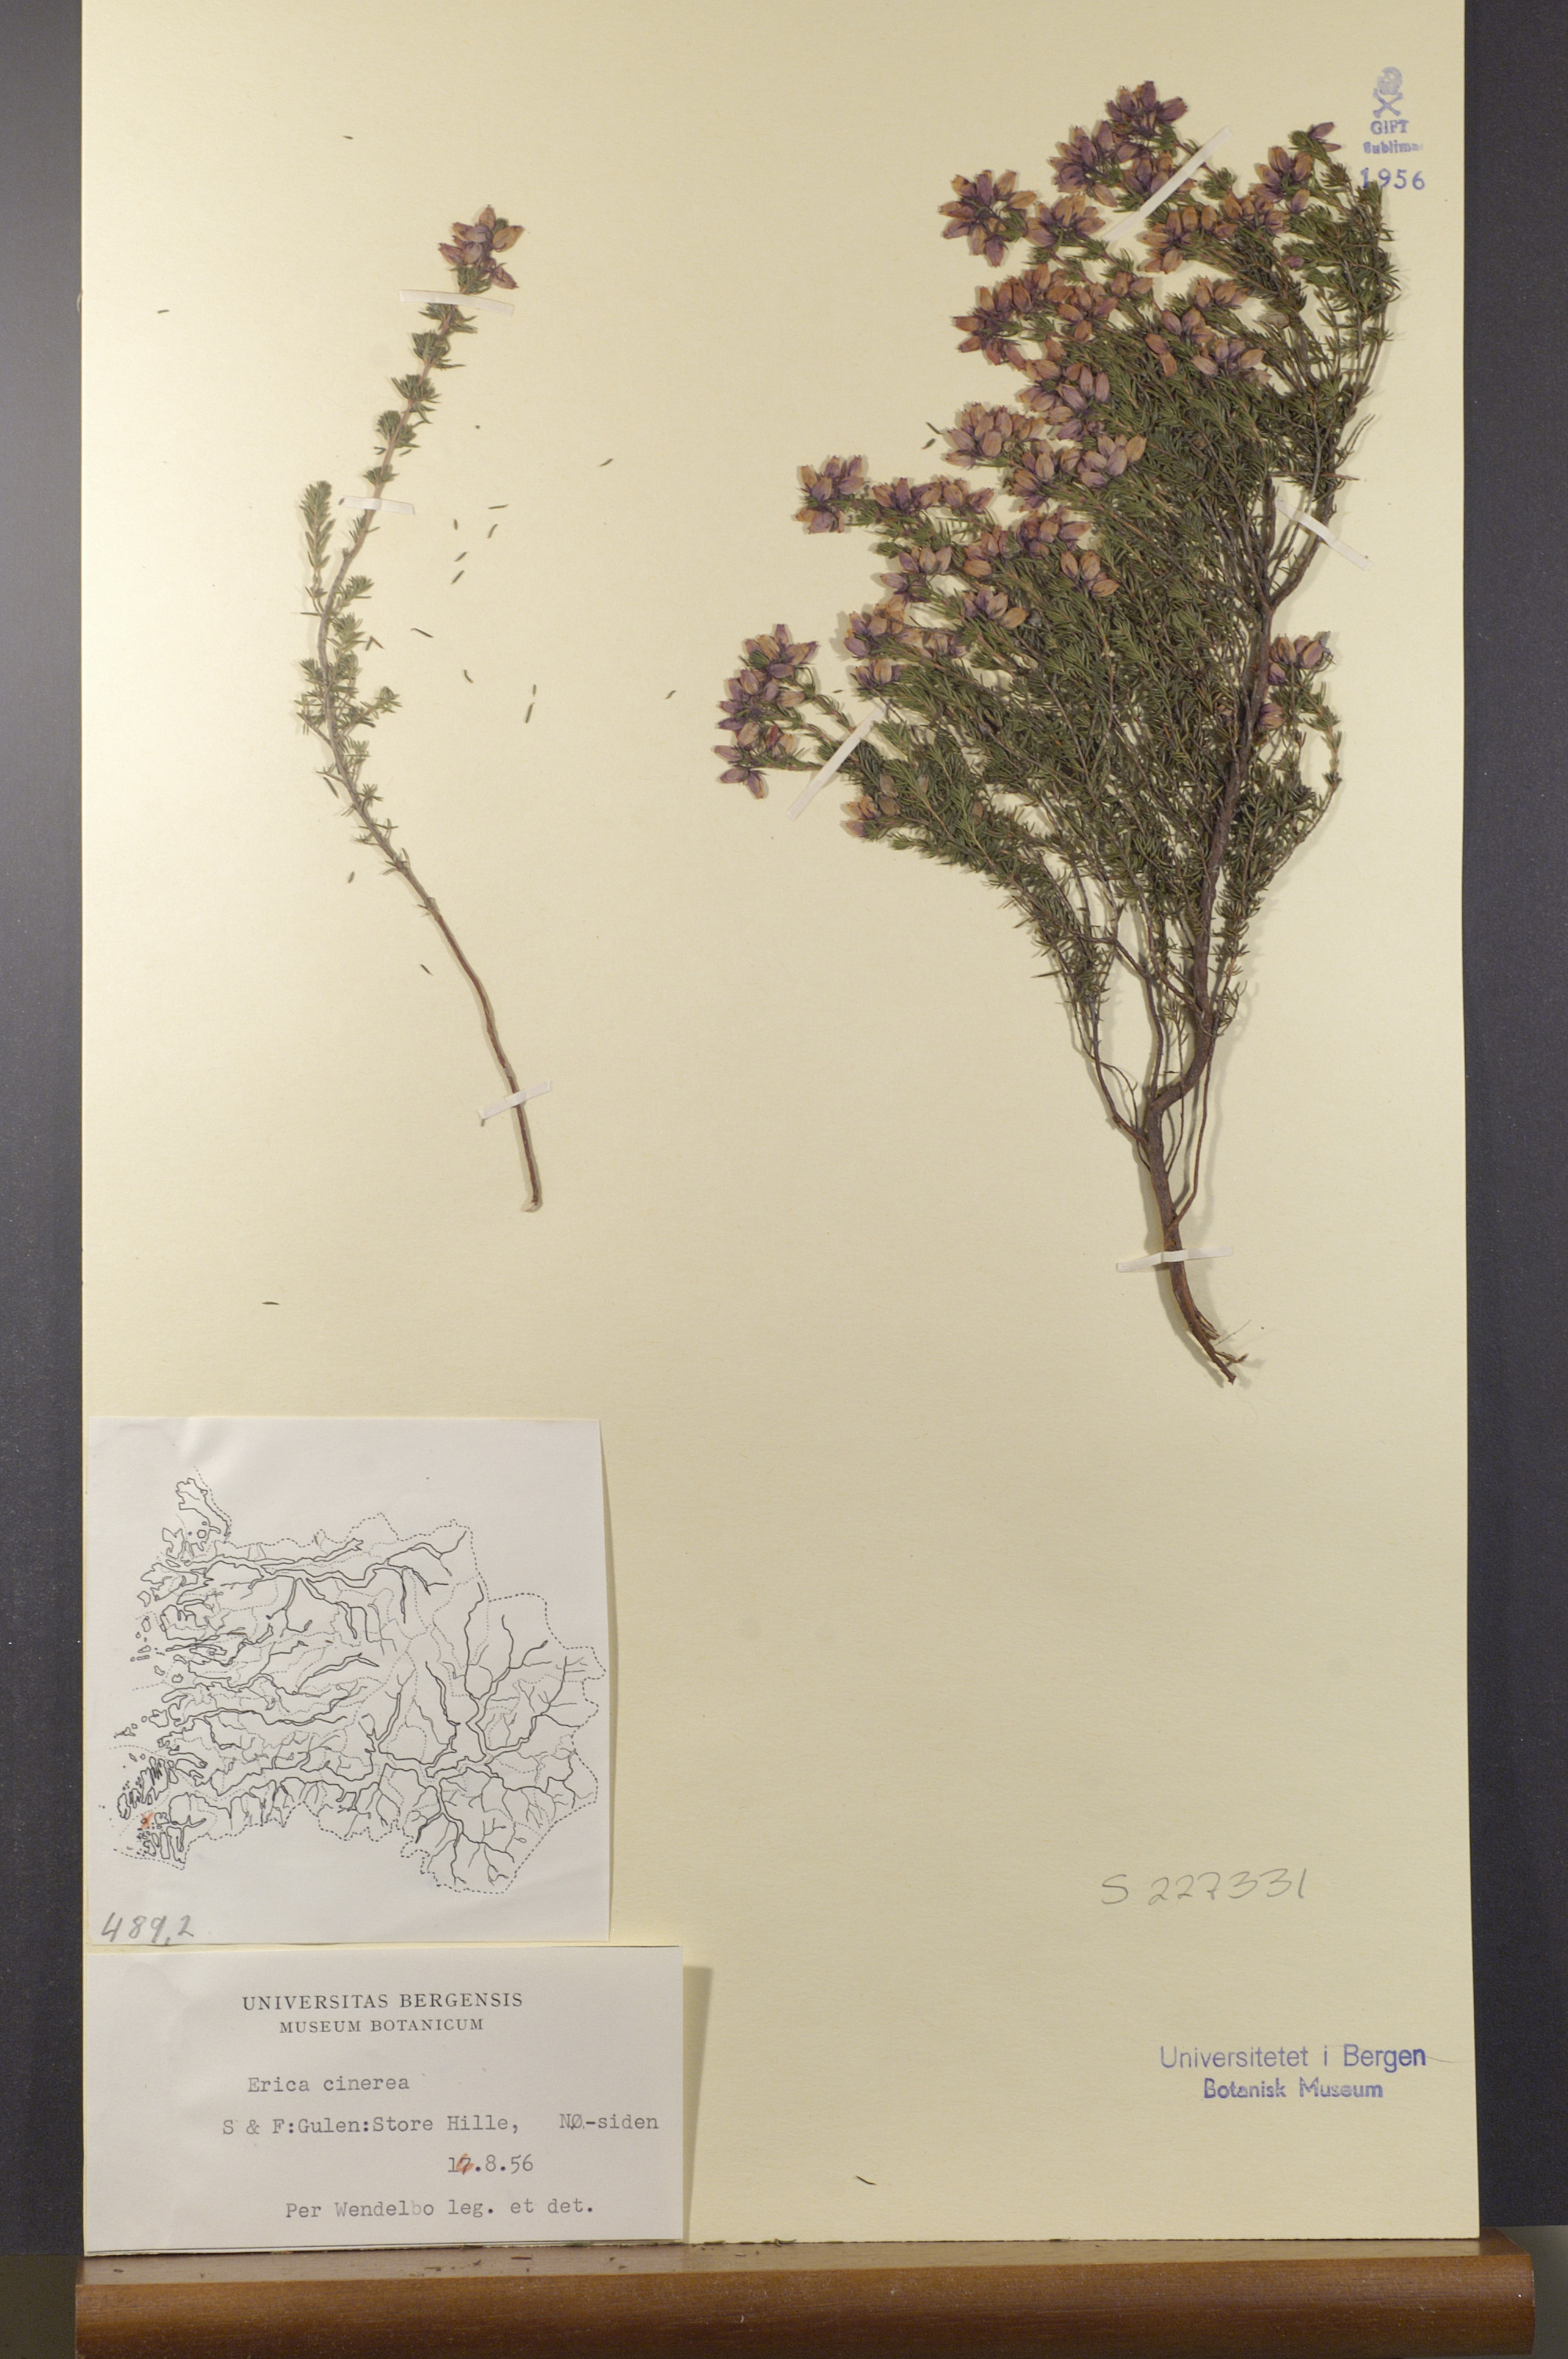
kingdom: Plantae
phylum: Tracheophyta
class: Magnoliopsida
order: Ericales
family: Ericaceae
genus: Erica
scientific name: Erica cinerea
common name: Bell heather
